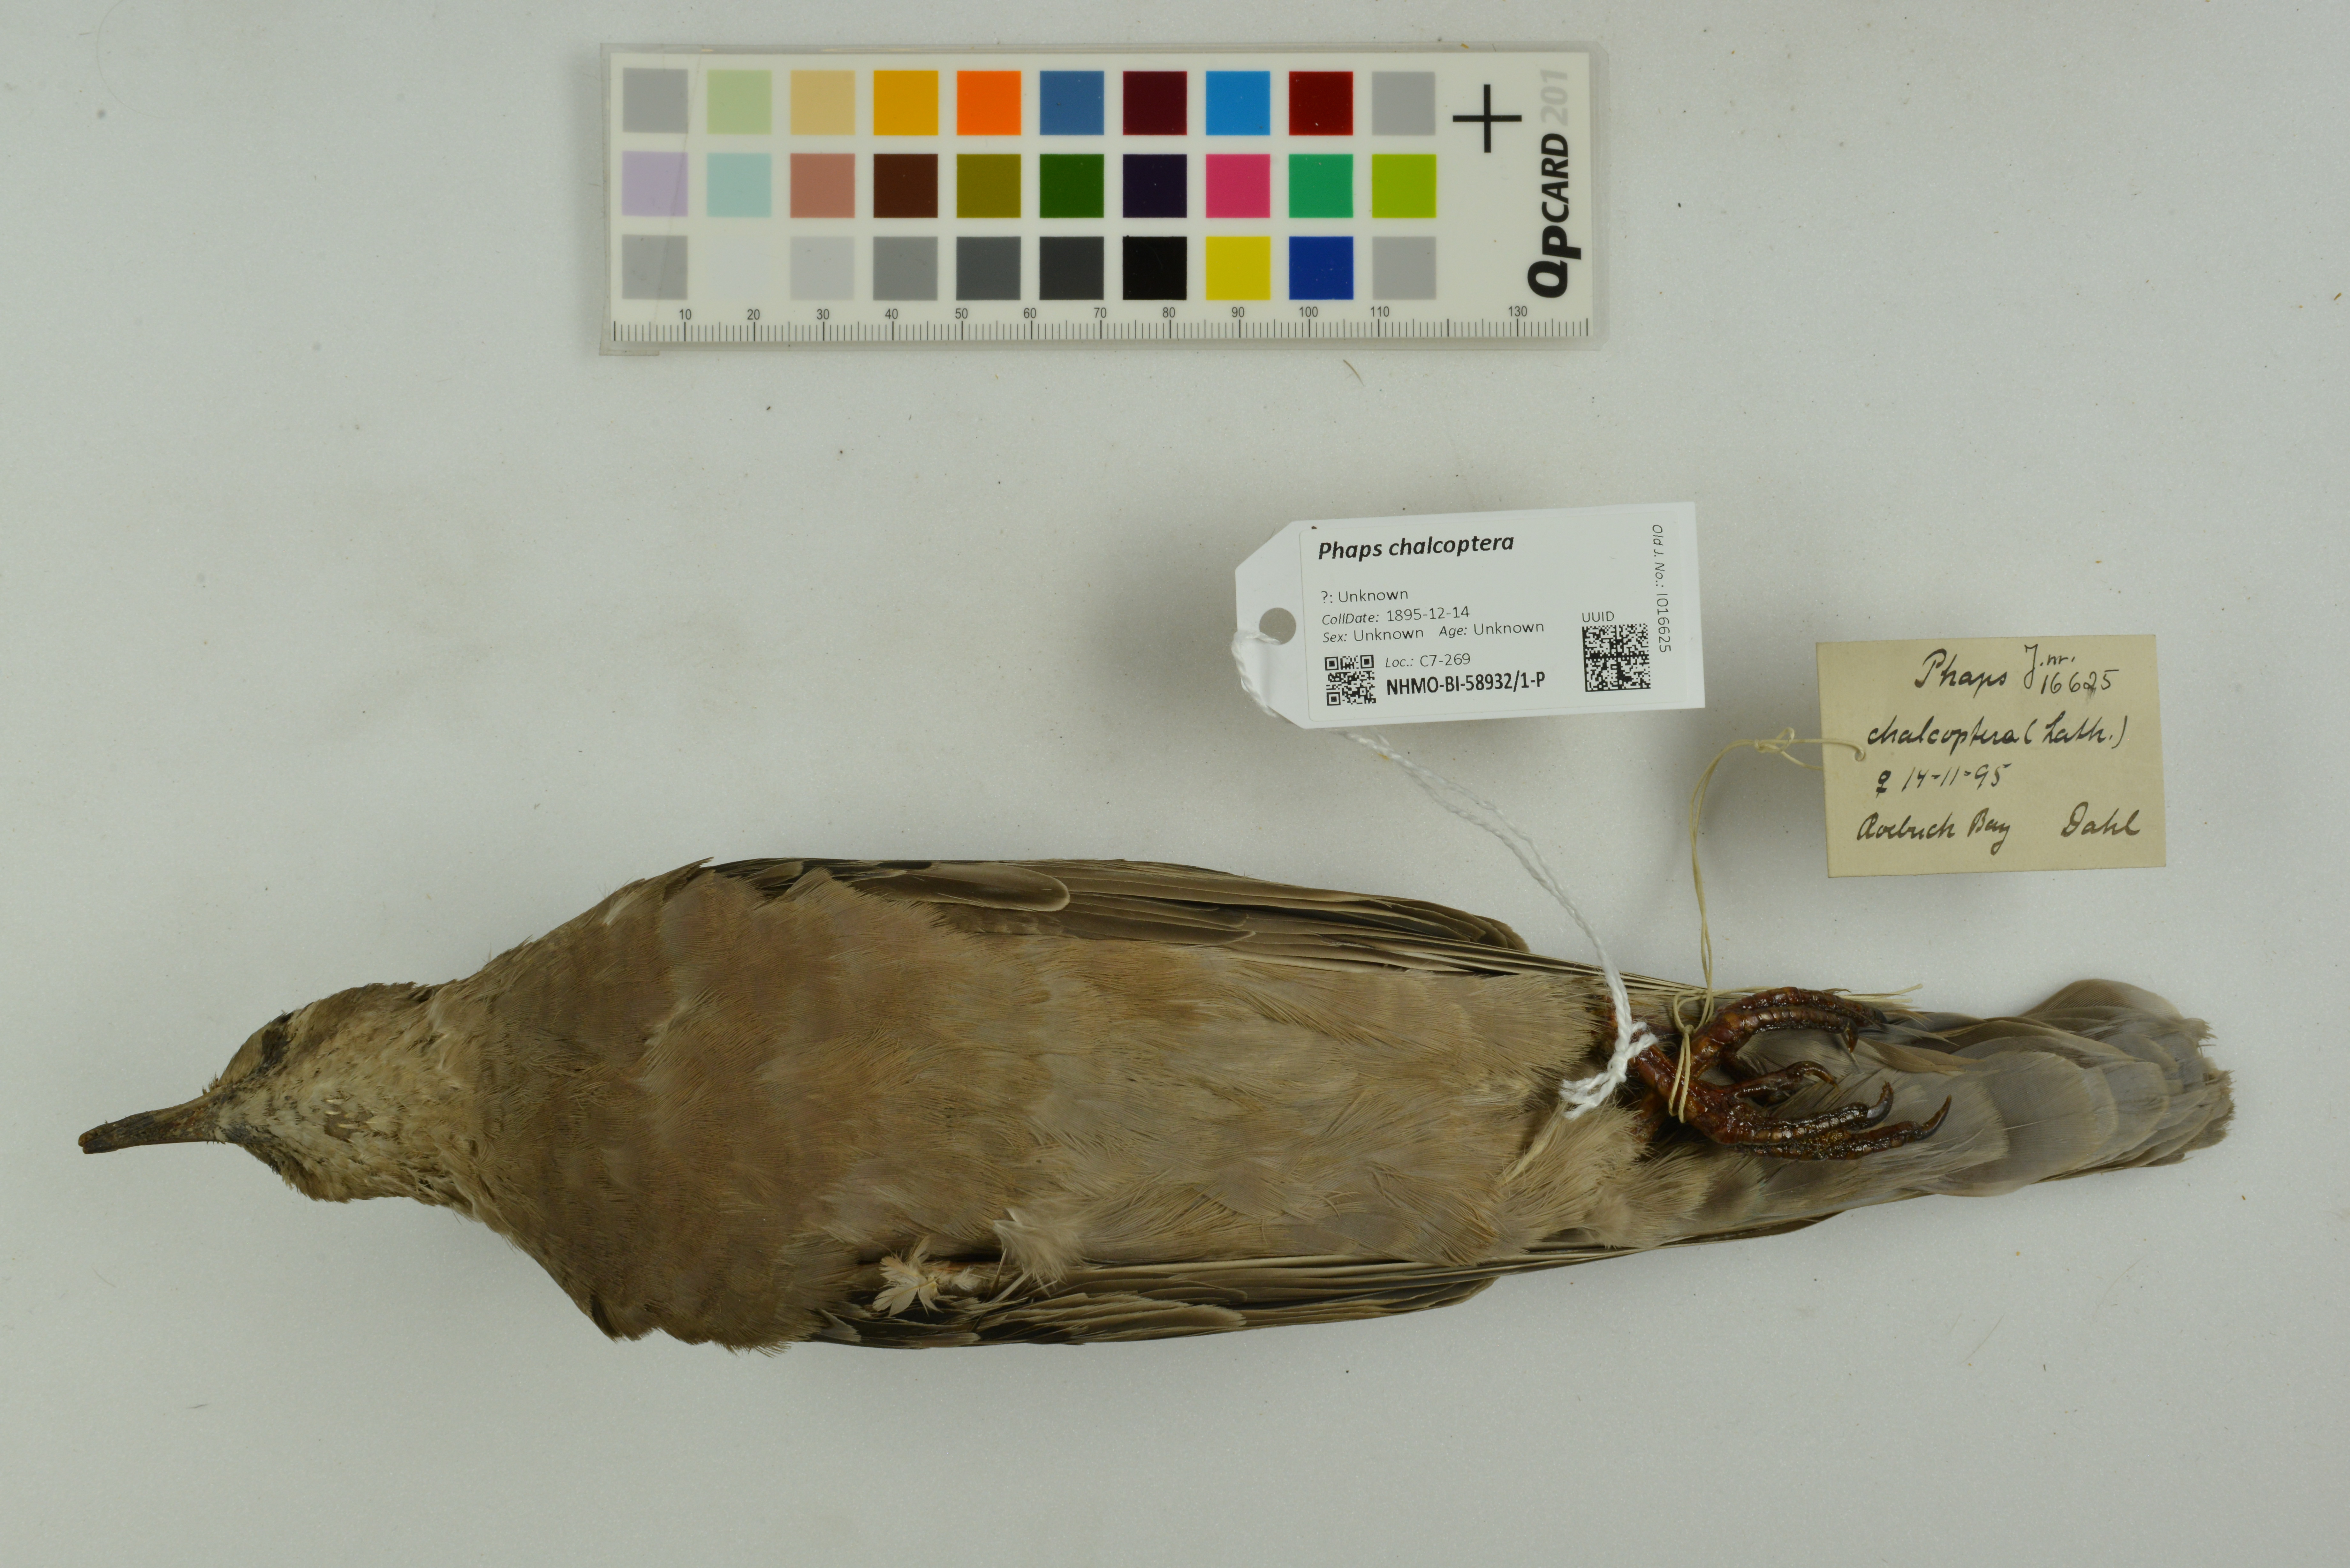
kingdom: Animalia
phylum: Chordata
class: Aves
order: Columbiformes
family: Columbidae
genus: Phaps
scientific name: Phaps chalcoptera
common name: Common bronzewing
